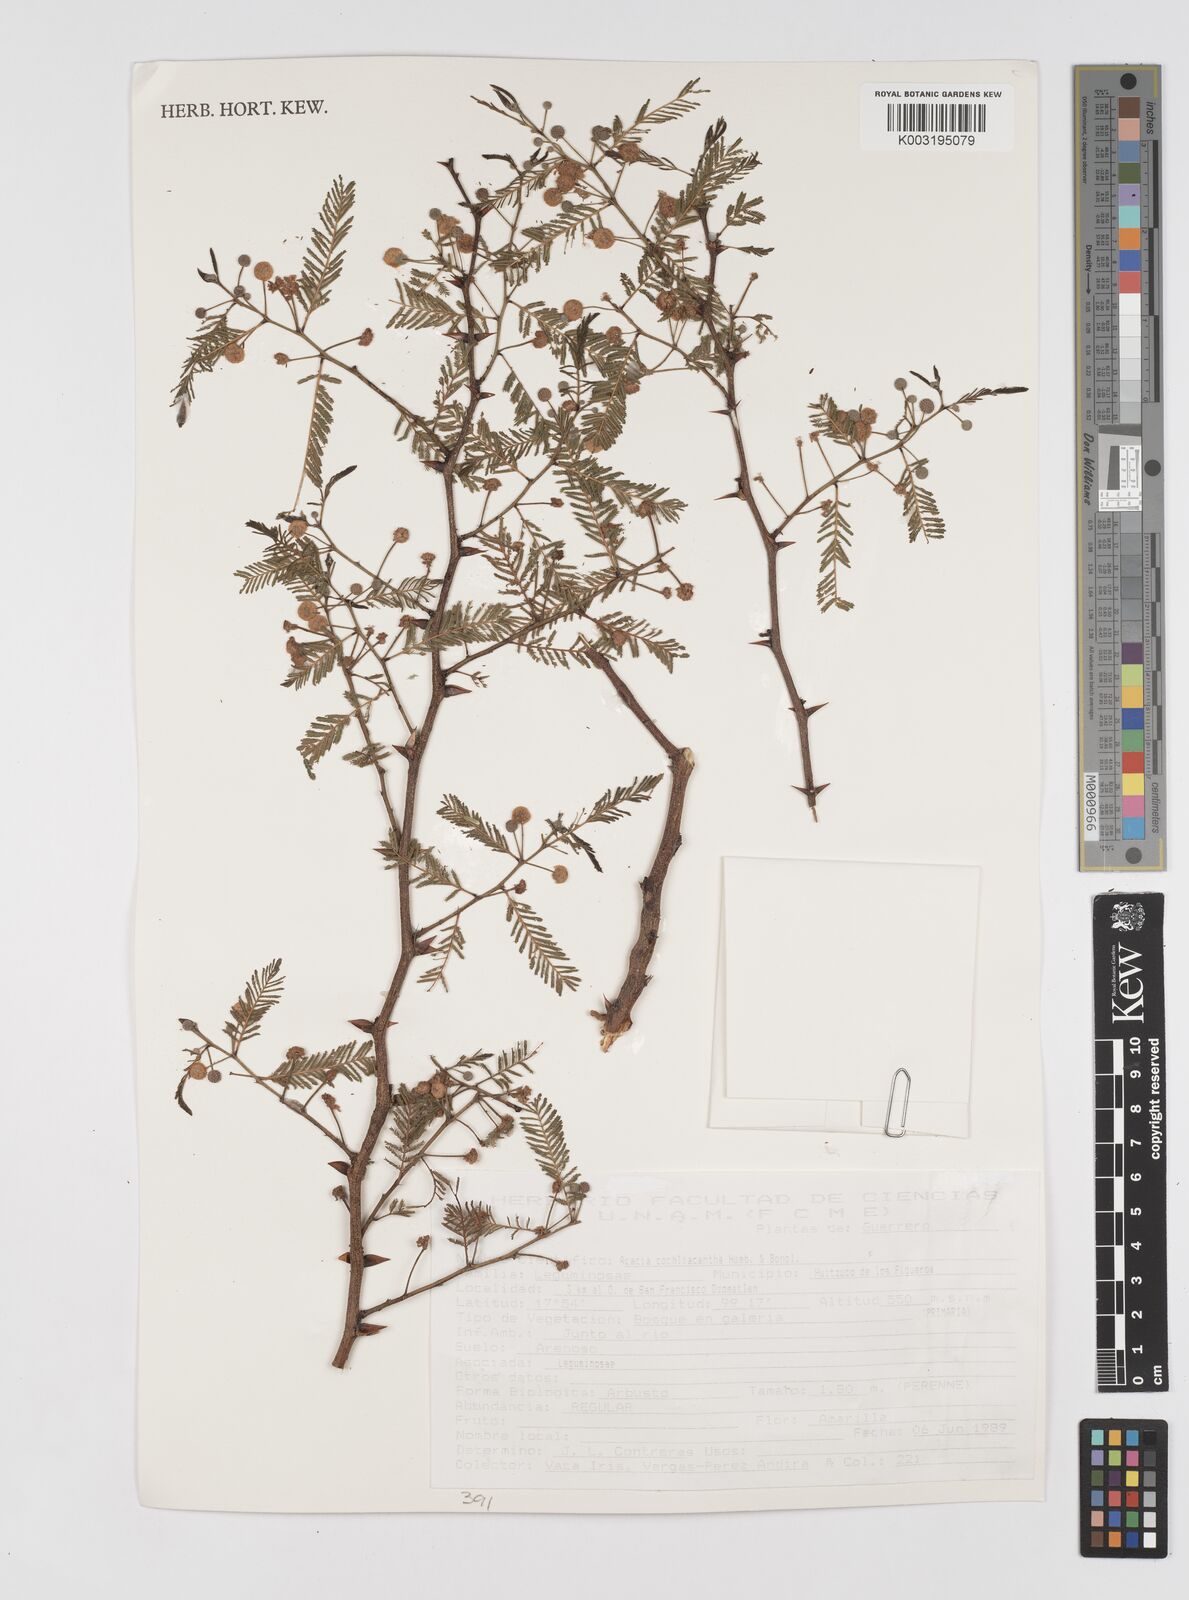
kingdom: Plantae
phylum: Tracheophyta
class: Magnoliopsida
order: Fabales
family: Fabaceae
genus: Vachellia
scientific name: Vachellia campeachiana
